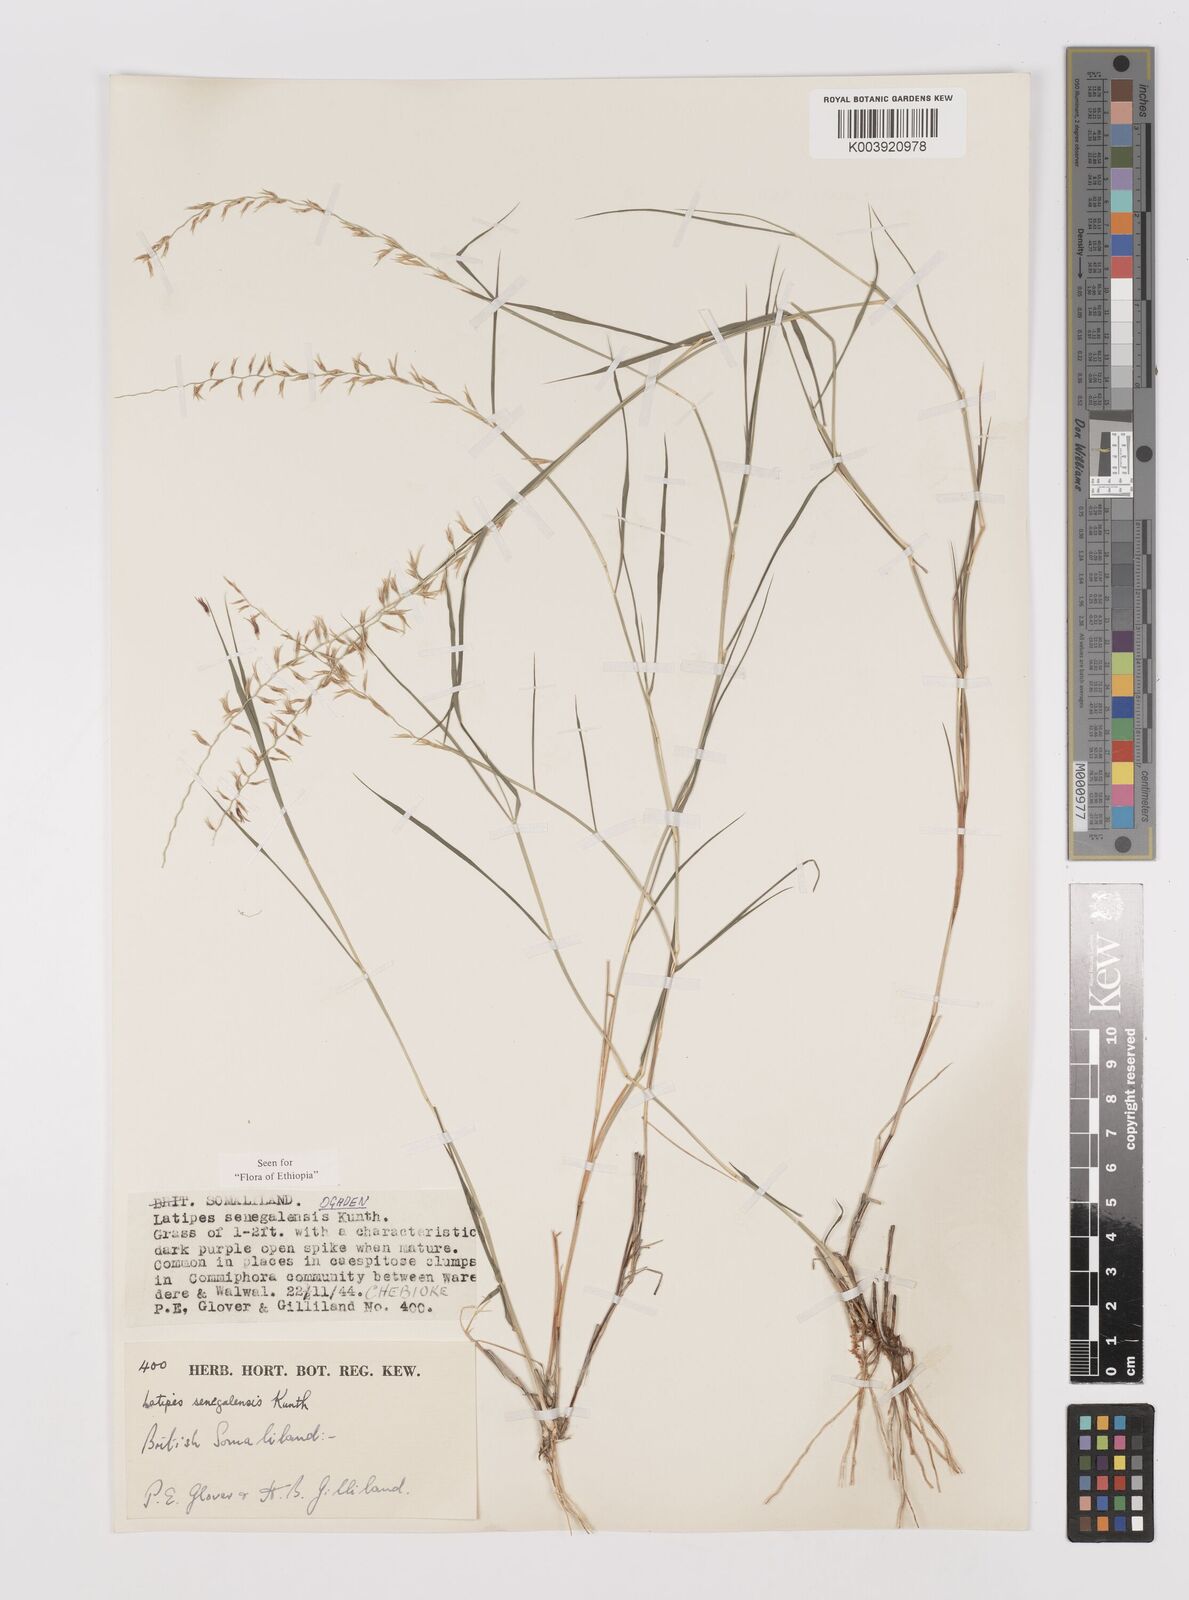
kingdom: Plantae
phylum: Tracheophyta
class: Liliopsida
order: Poales
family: Poaceae
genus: Leptothrium
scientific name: Leptothrium senegalense
